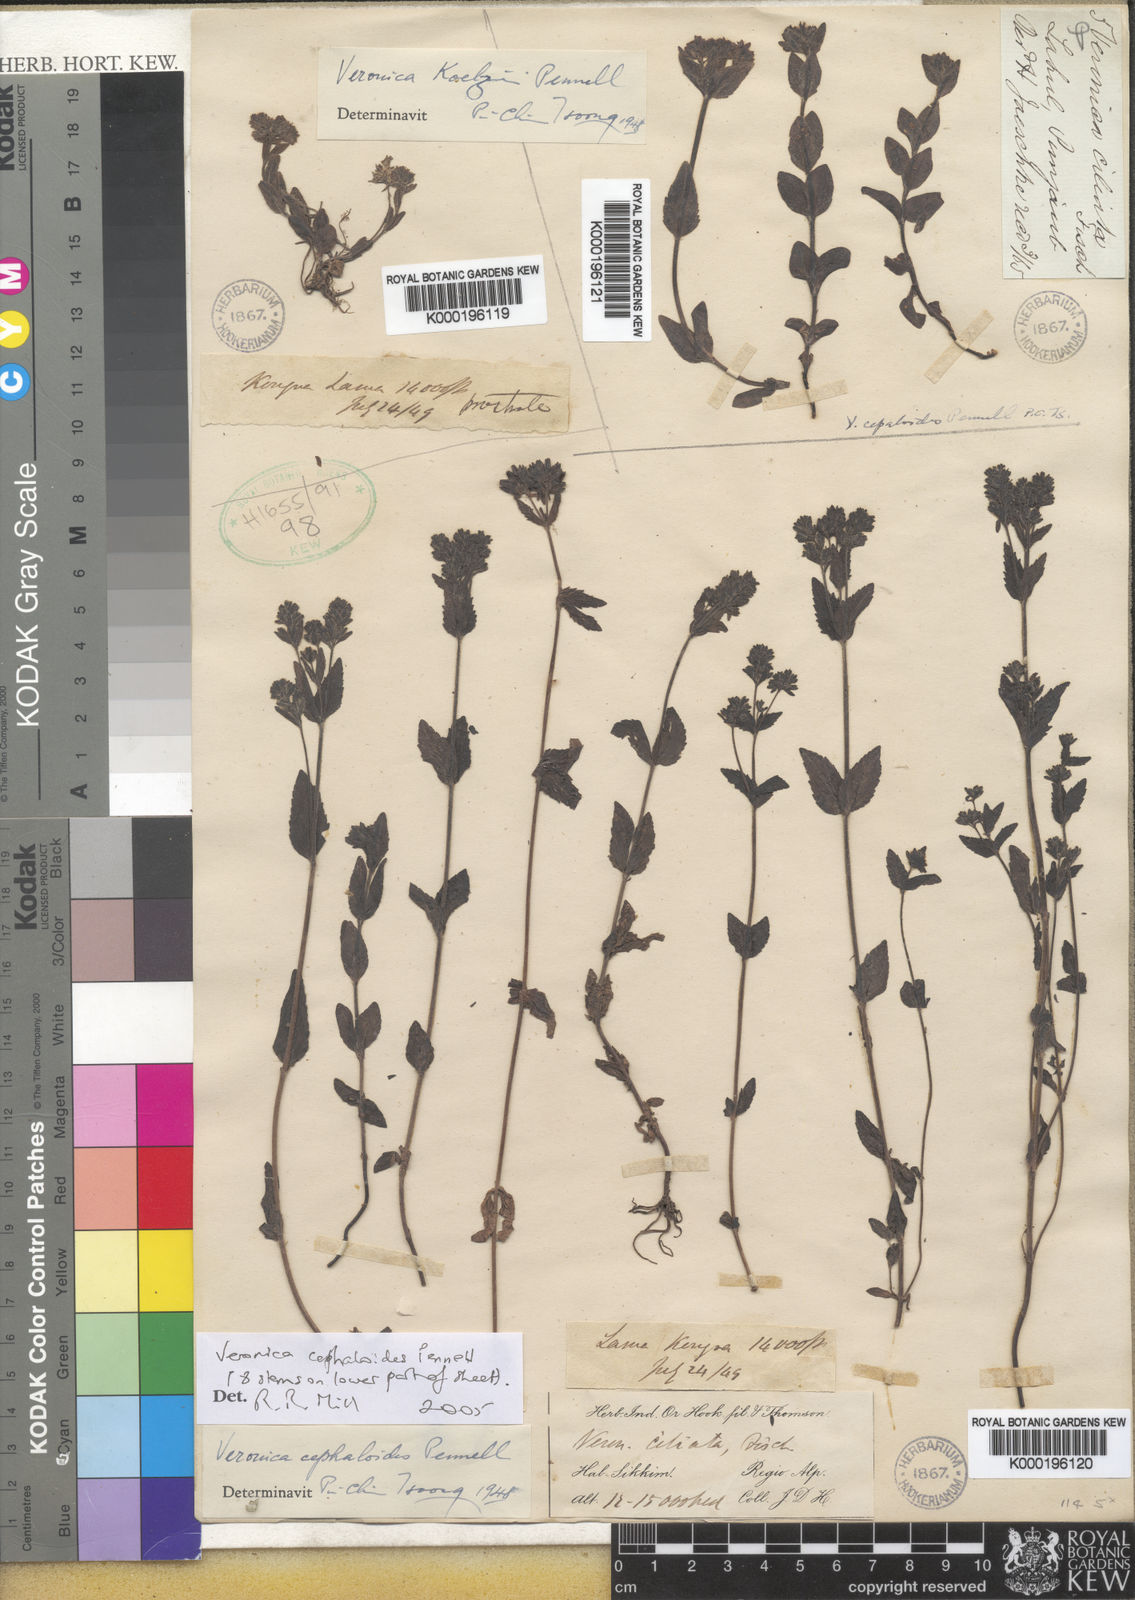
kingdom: Plantae
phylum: Tracheophyta
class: Magnoliopsida
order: Lamiales
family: Plantaginaceae
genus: Veronica
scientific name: Veronica ciliata
